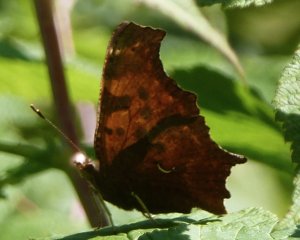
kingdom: Animalia
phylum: Arthropoda
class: Insecta
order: Lepidoptera
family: Nymphalidae
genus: Polygonia
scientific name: Polygonia interrogationis
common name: Question Mark
